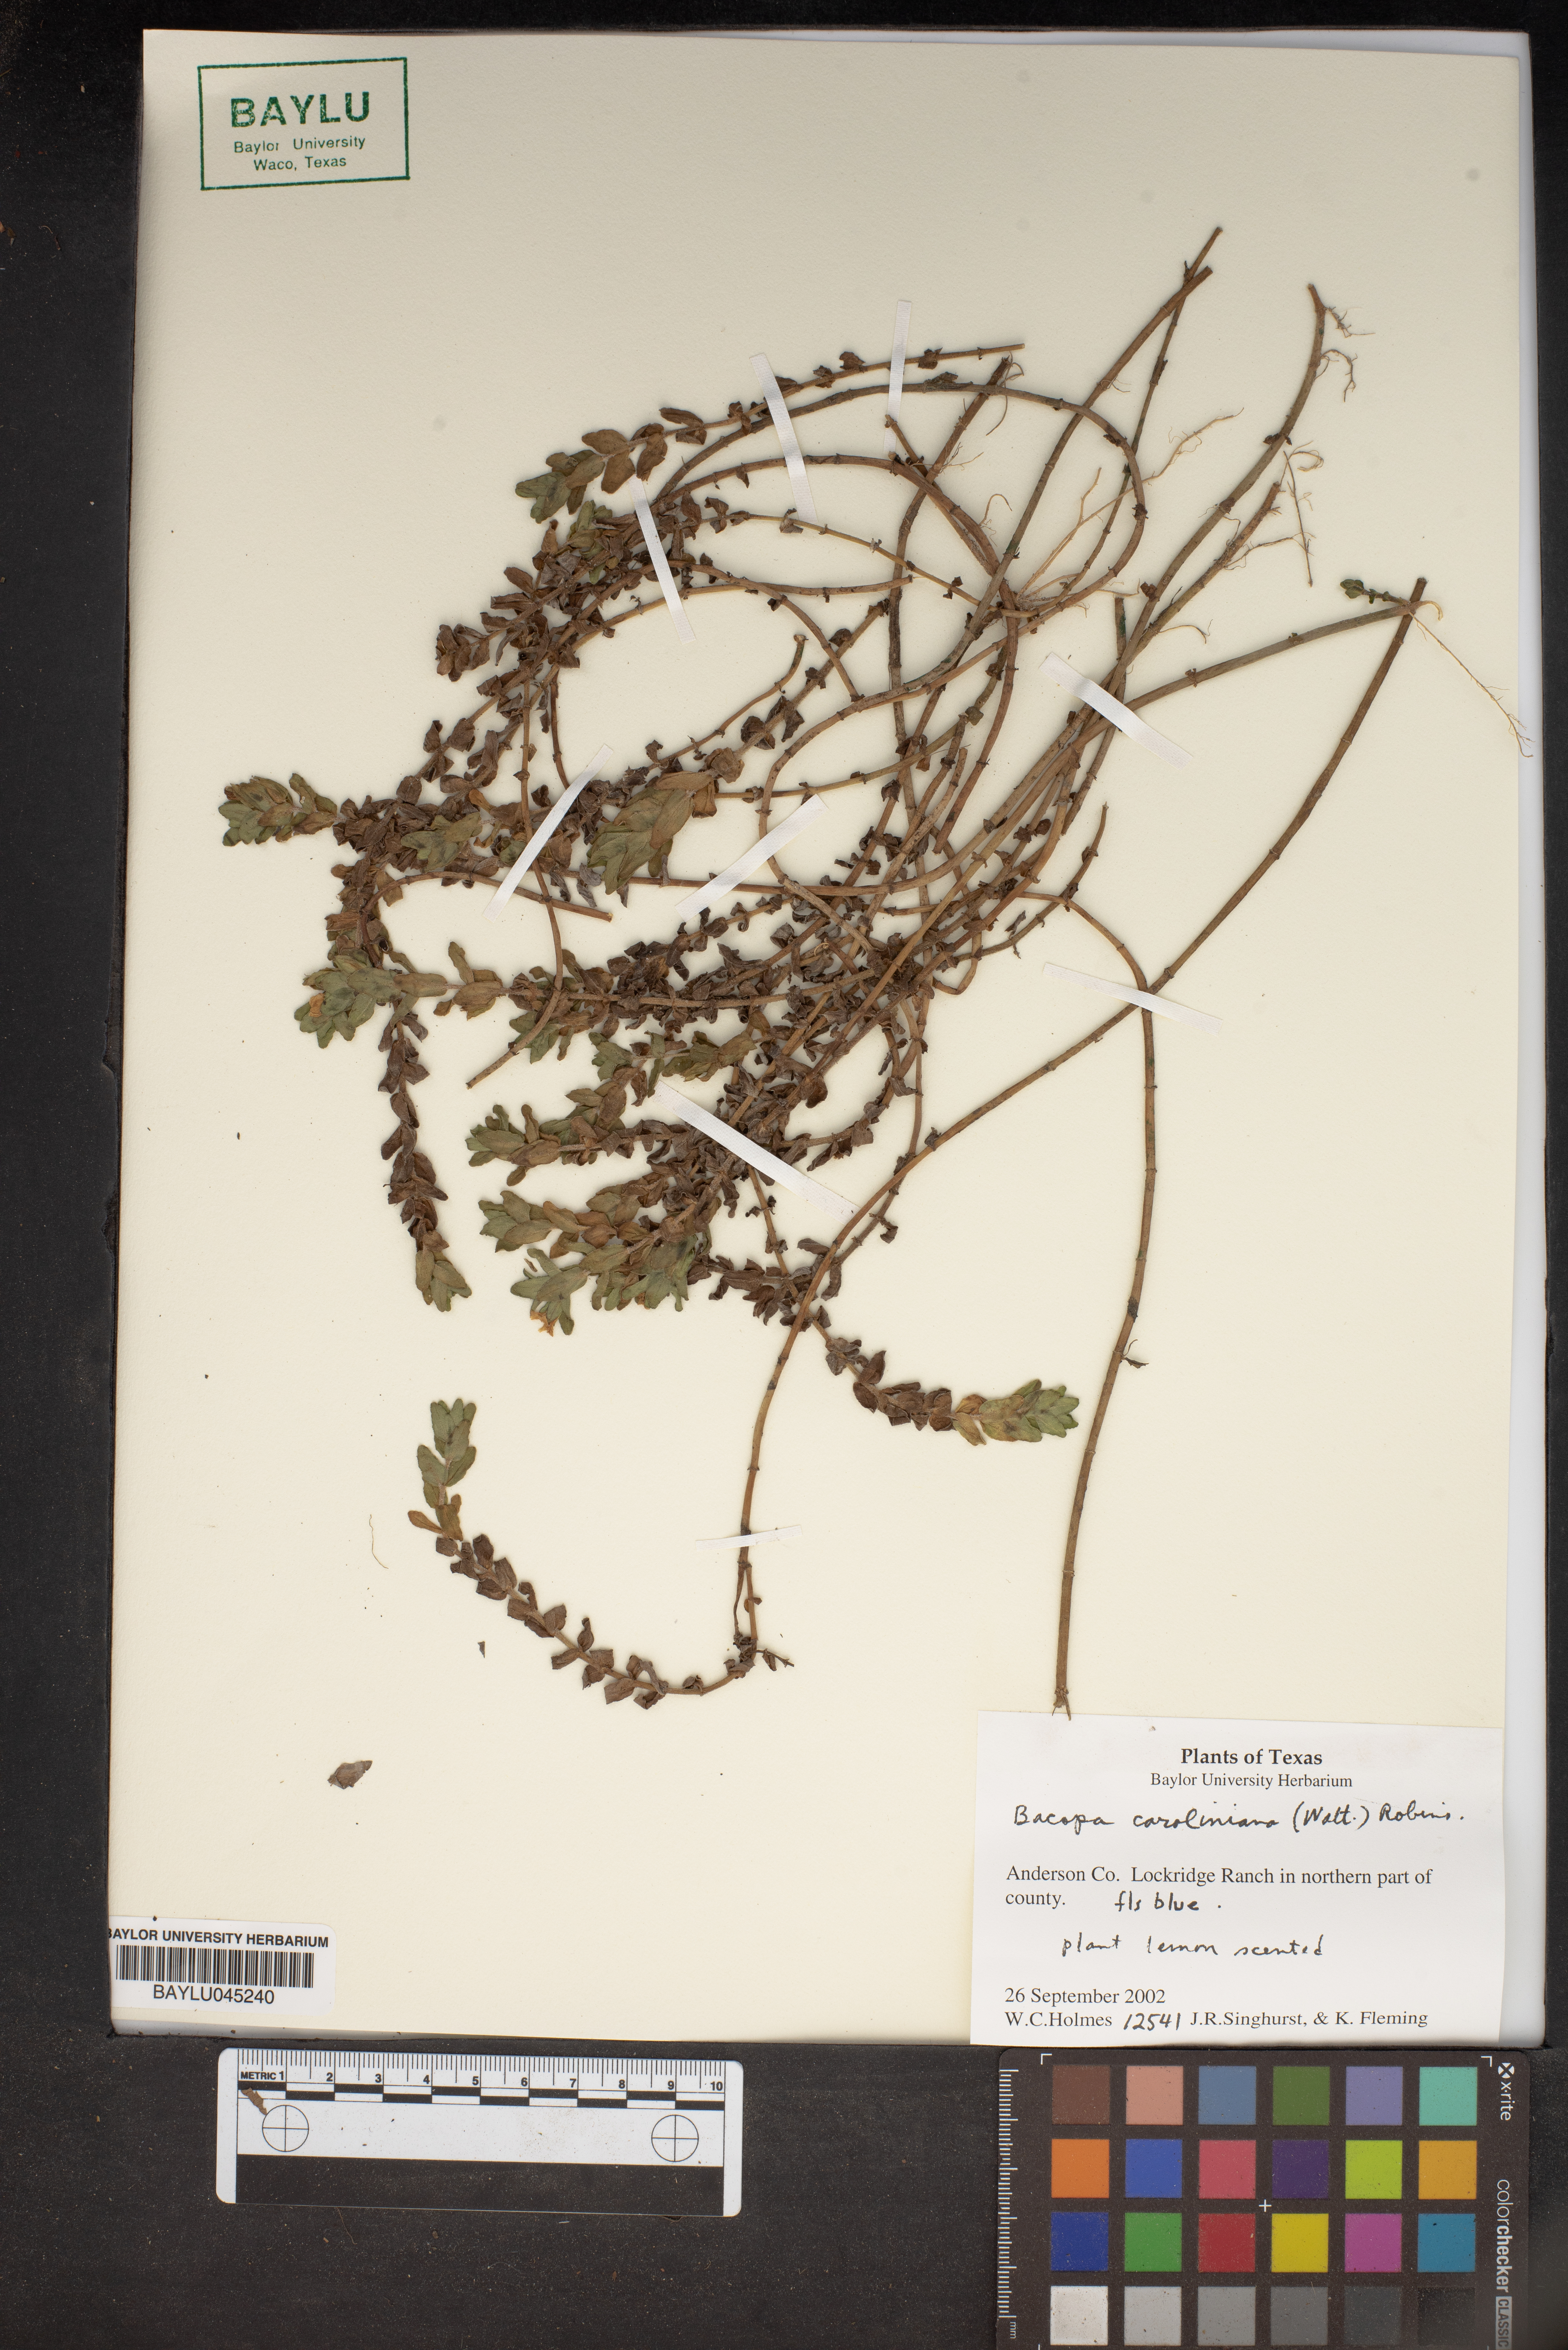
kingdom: Plantae
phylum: Tracheophyta
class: Magnoliopsida
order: Lamiales
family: Plantaginaceae
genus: Bacopa
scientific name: Bacopa caroliniana
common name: Lemon bacopa
